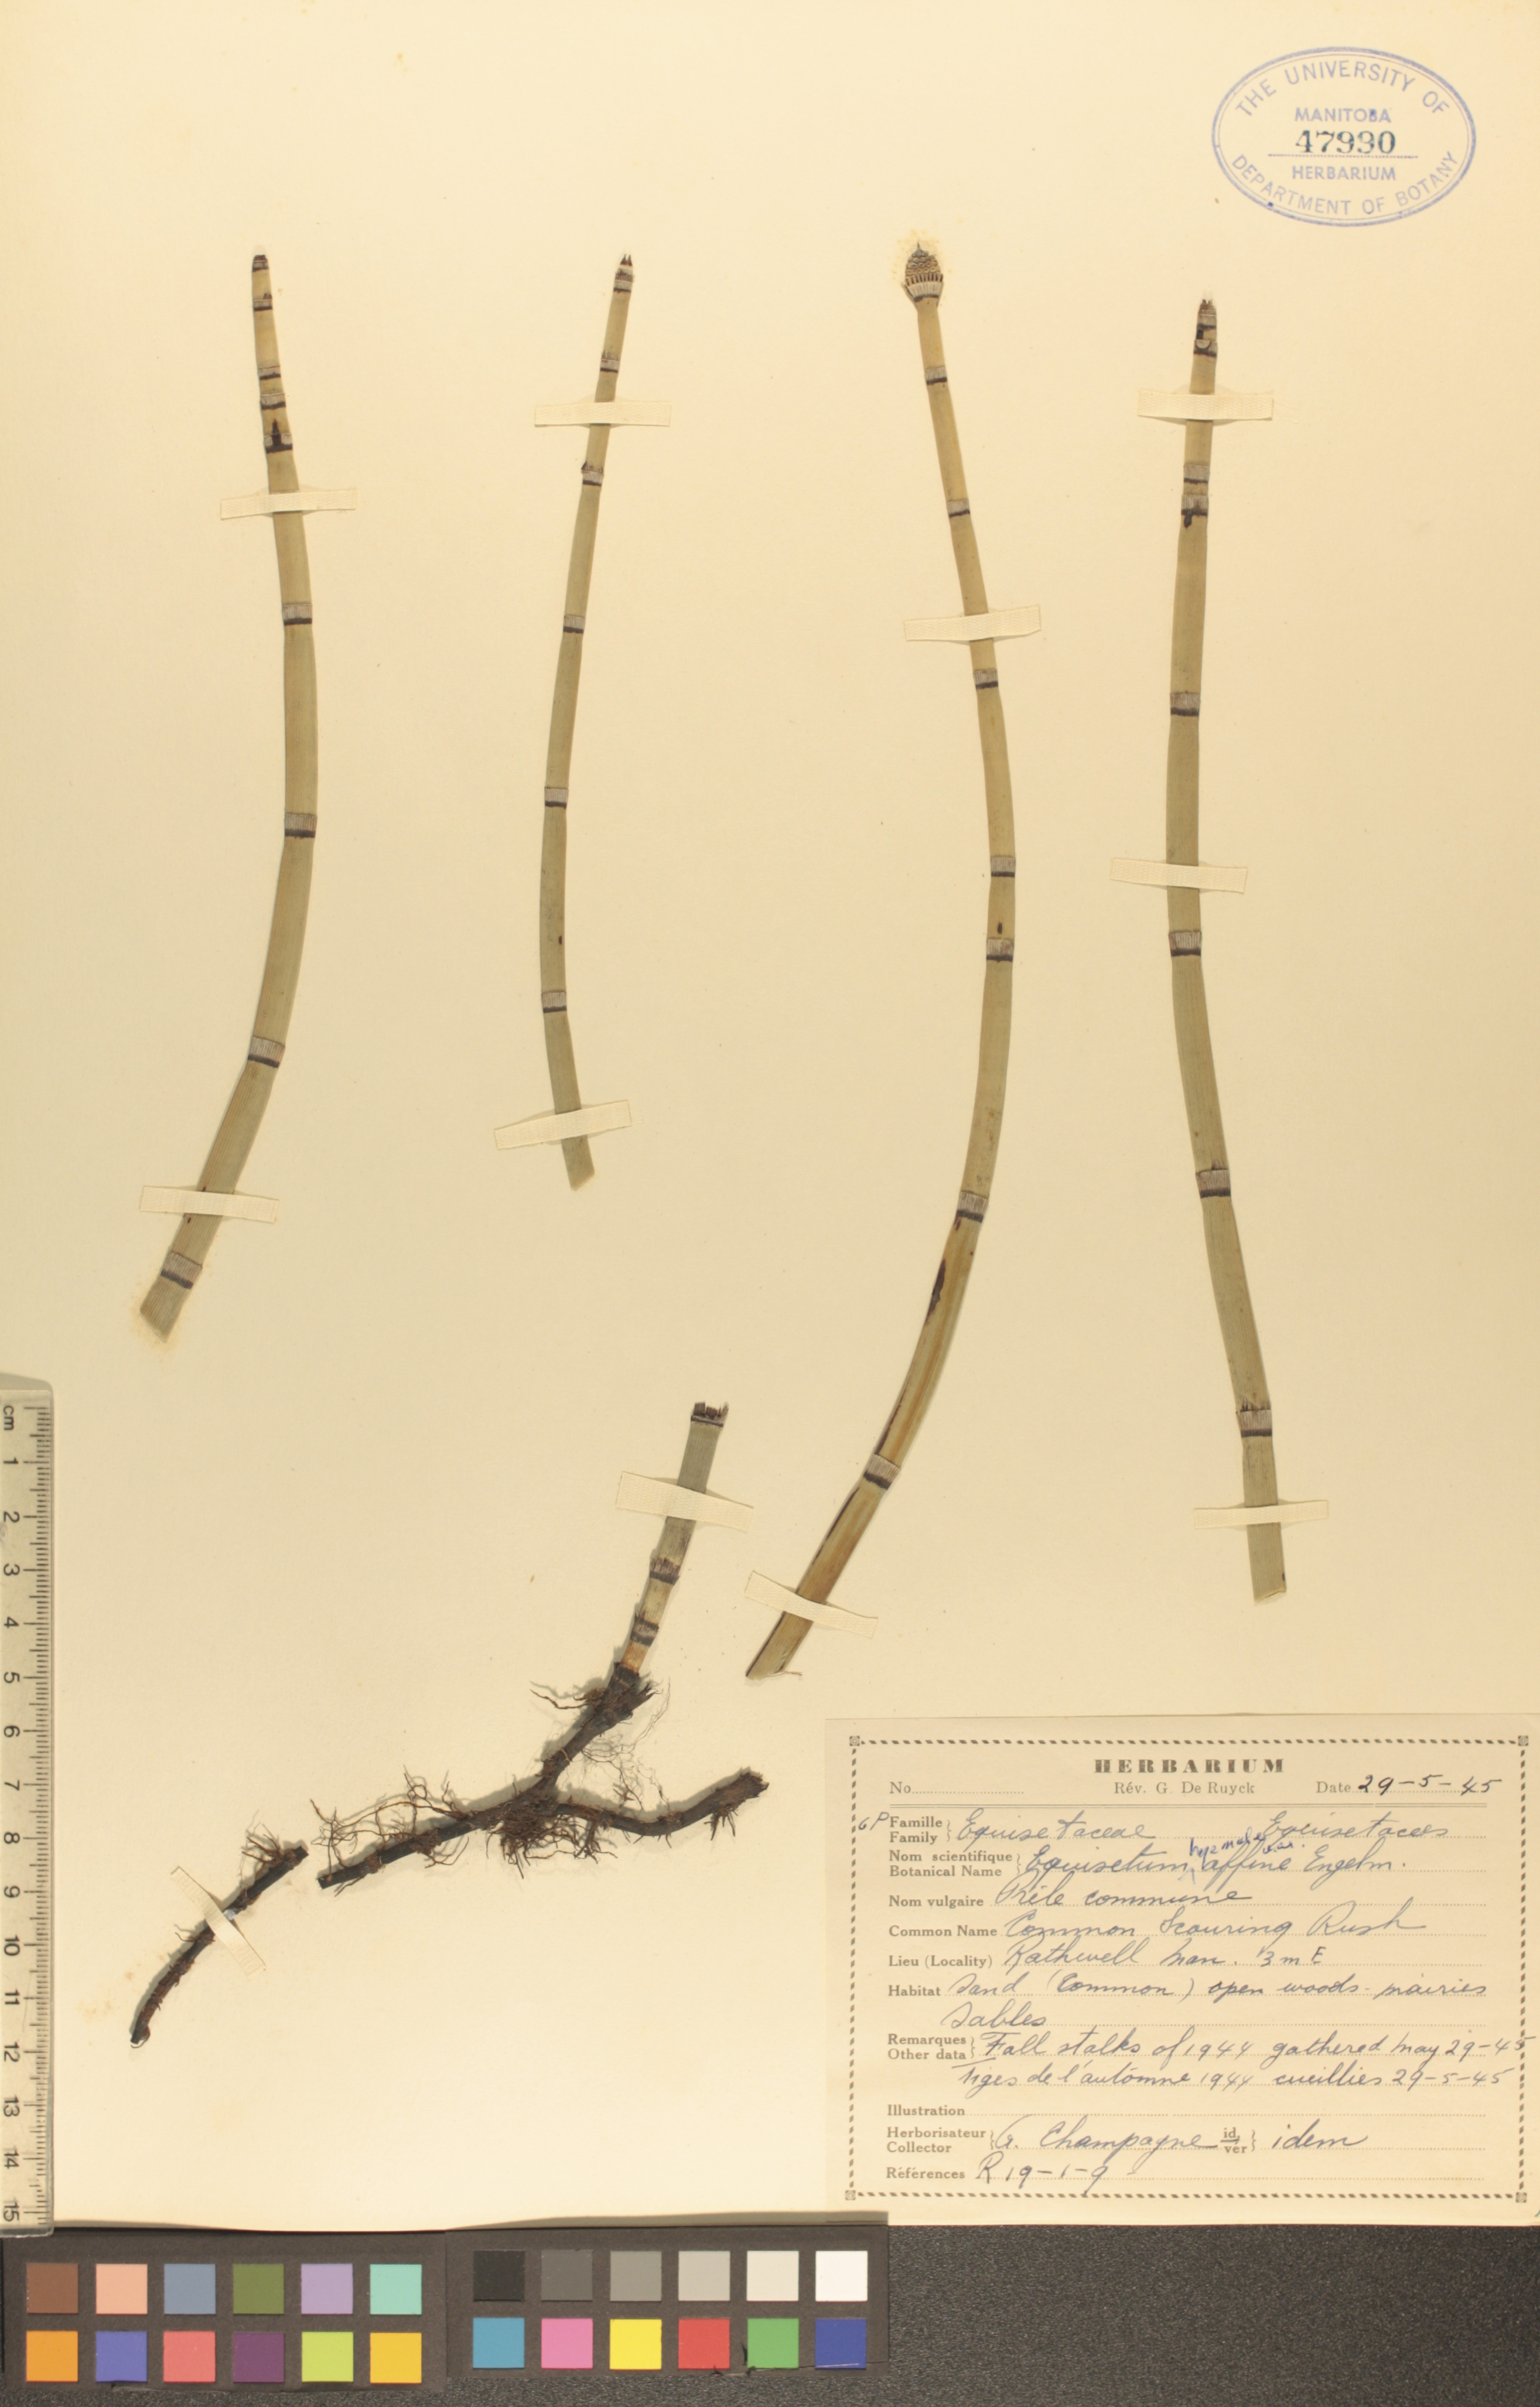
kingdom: Plantae
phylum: Tracheophyta
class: Polypodiopsida
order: Equisetales
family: Equisetaceae
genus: Equisetum
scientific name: Equisetum praealtum
